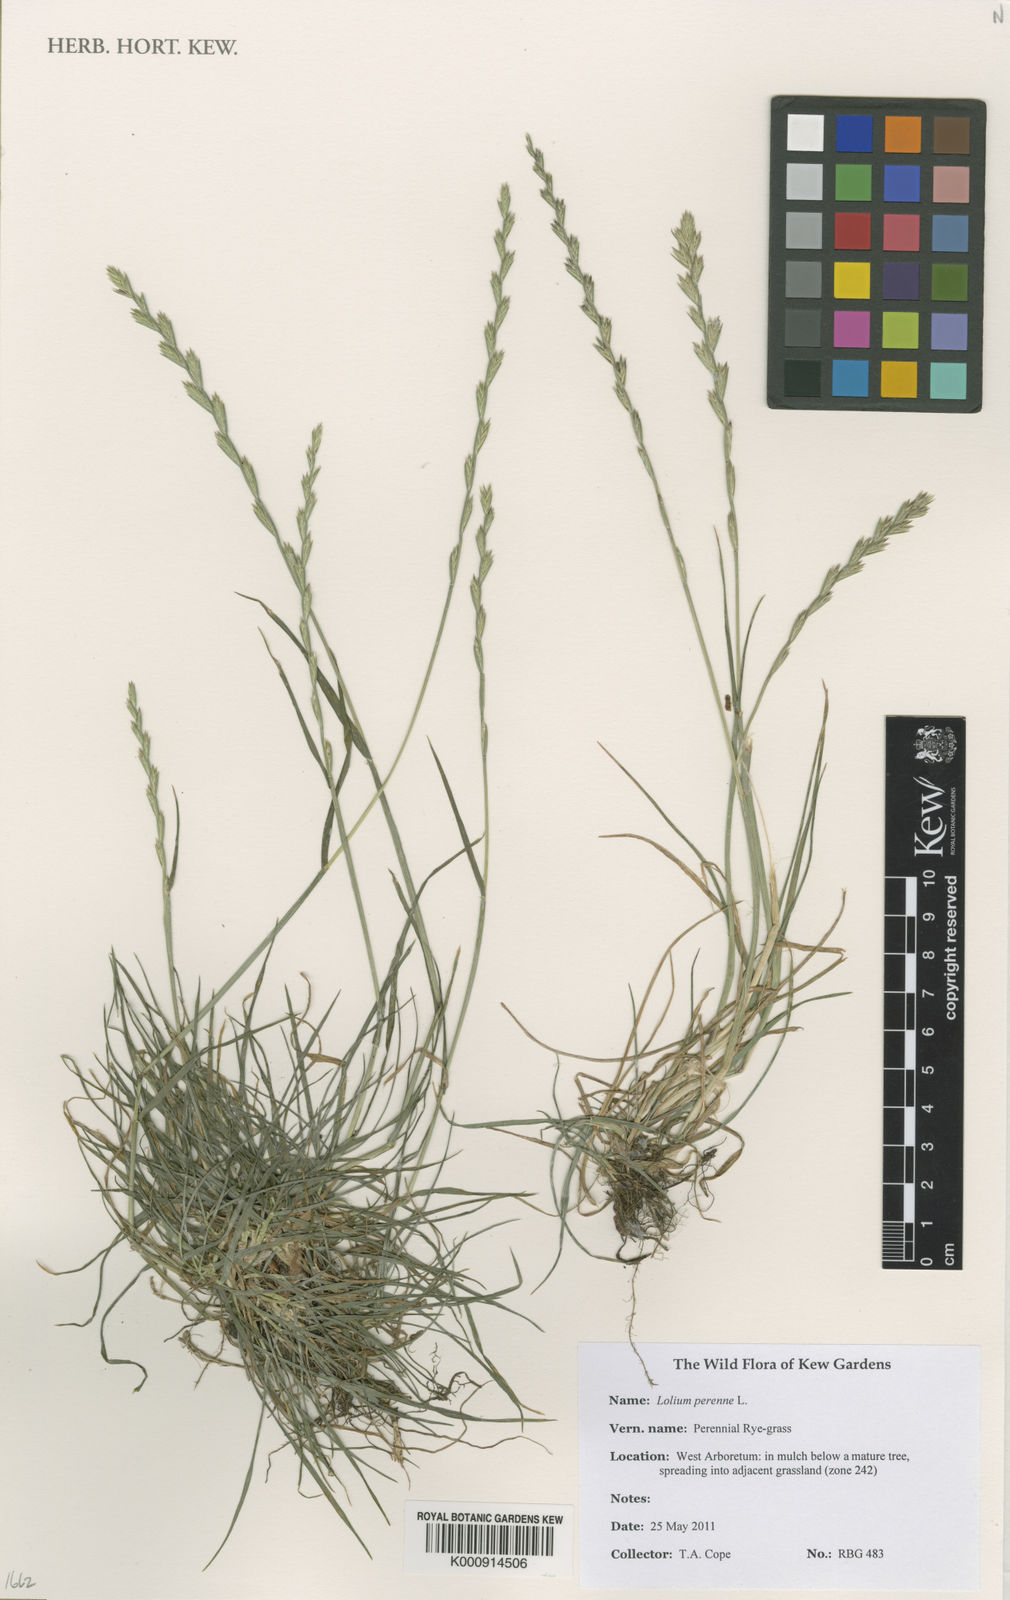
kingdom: Plantae
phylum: Tracheophyta
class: Liliopsida
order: Poales
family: Poaceae
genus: Lolium
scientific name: Lolium perenne
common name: Perennial ryegrass
